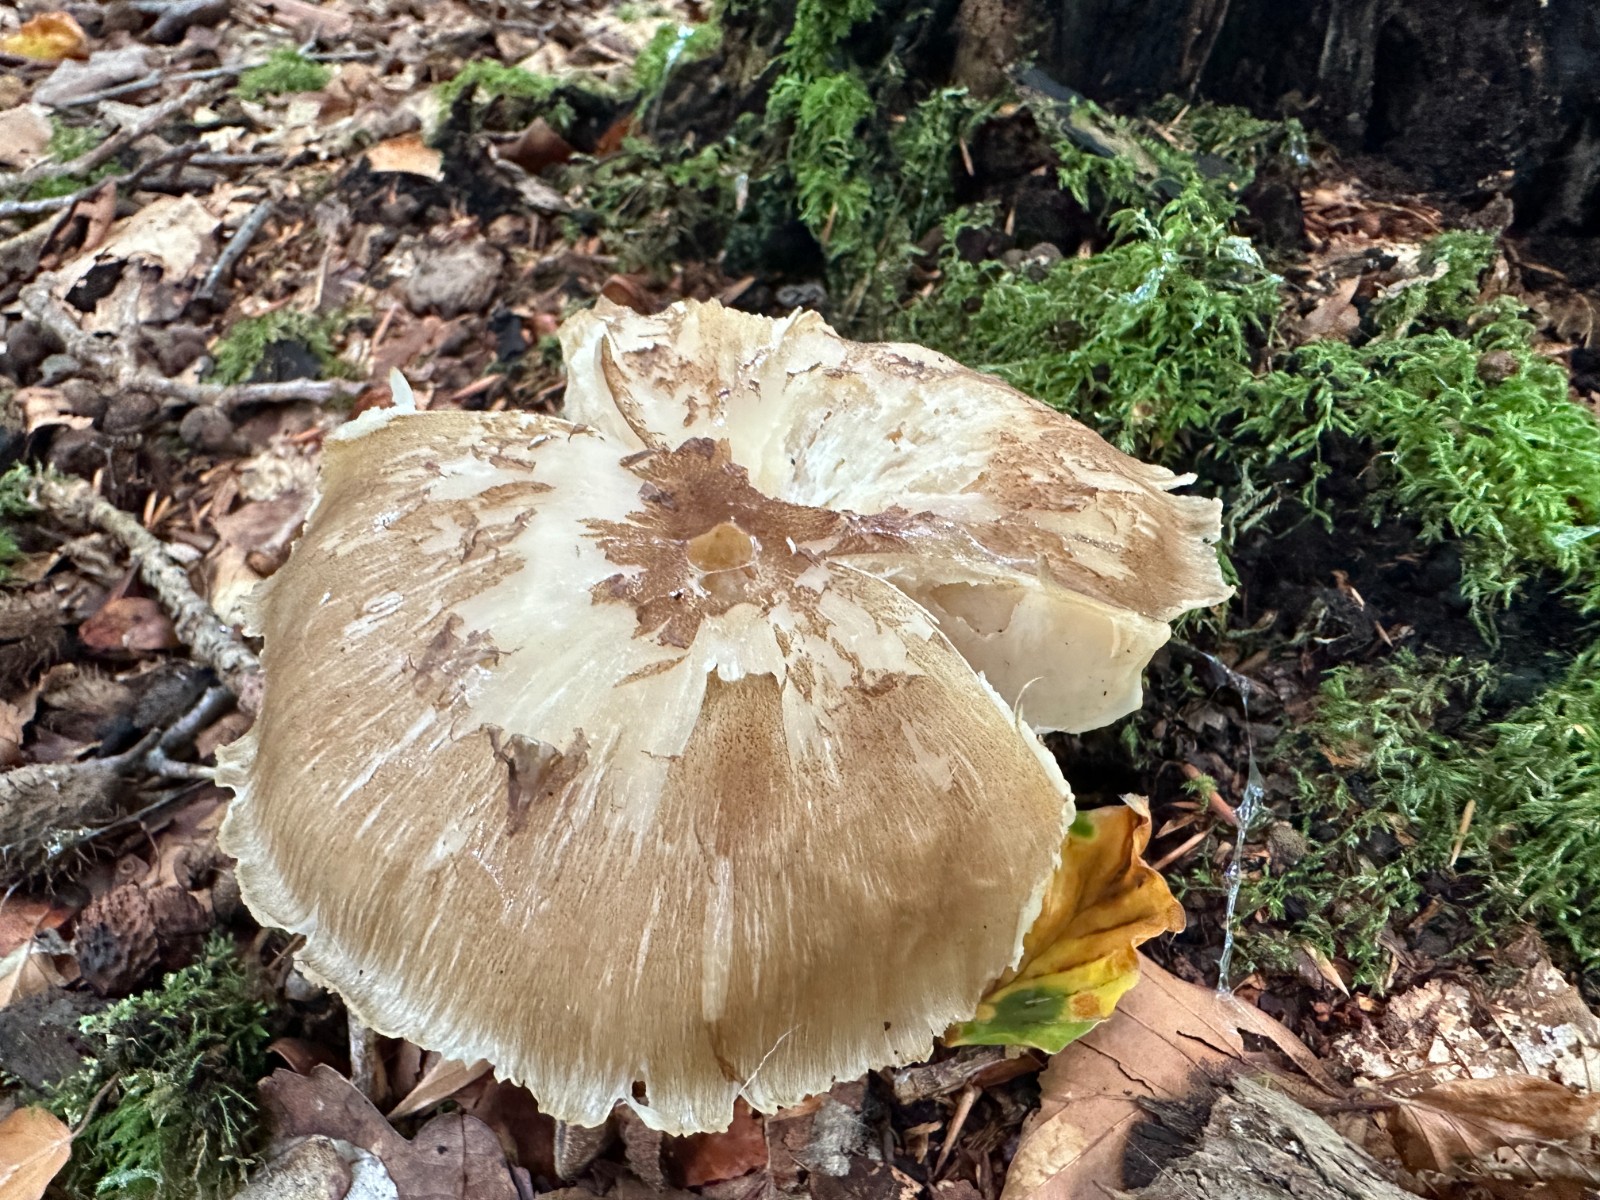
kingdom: Fungi
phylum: Basidiomycota
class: Agaricomycetes
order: Agaricales
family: Tricholomataceae
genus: Megacollybia
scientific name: Megacollybia platyphylla
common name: bredbladet væbnerhat
